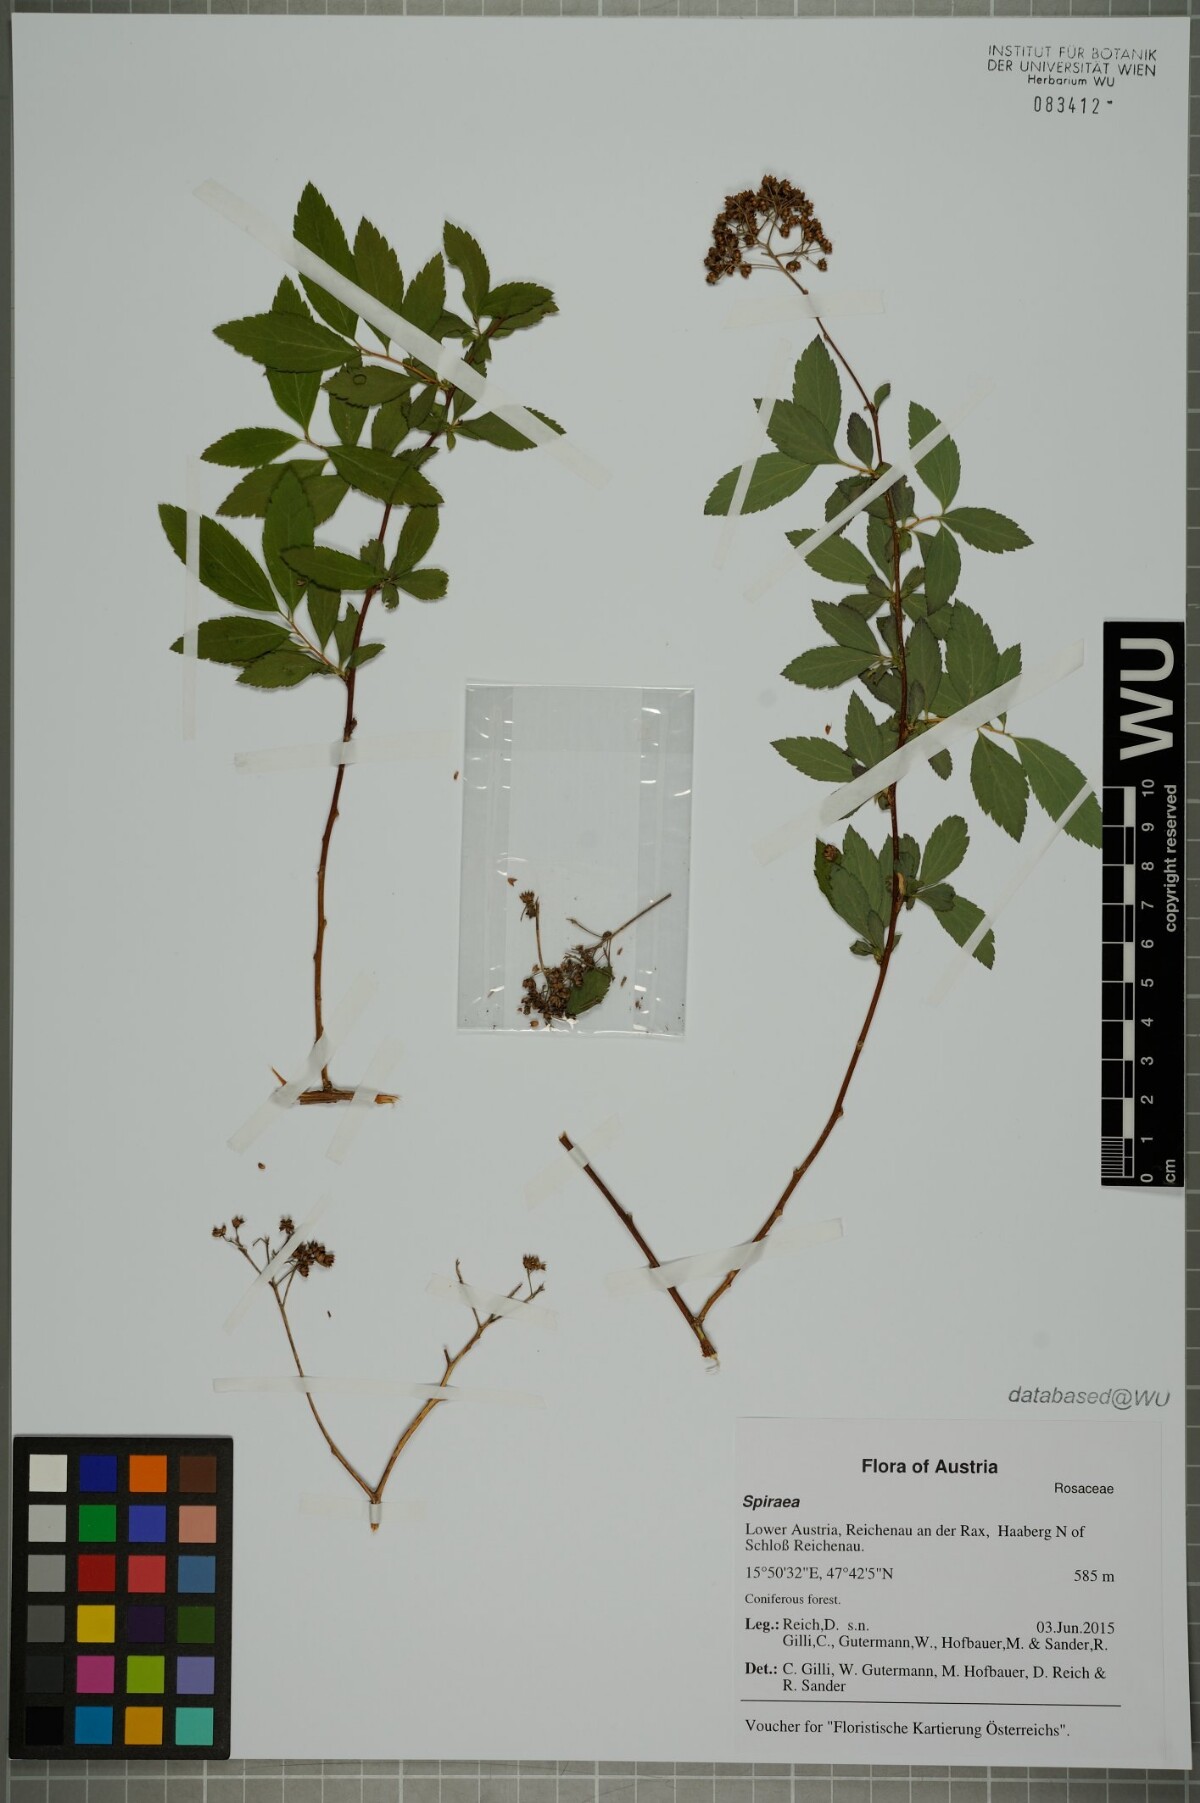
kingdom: Plantae
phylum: Tracheophyta
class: Magnoliopsida
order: Rosales
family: Rosaceae
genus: Spiraea
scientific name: Spiraea
